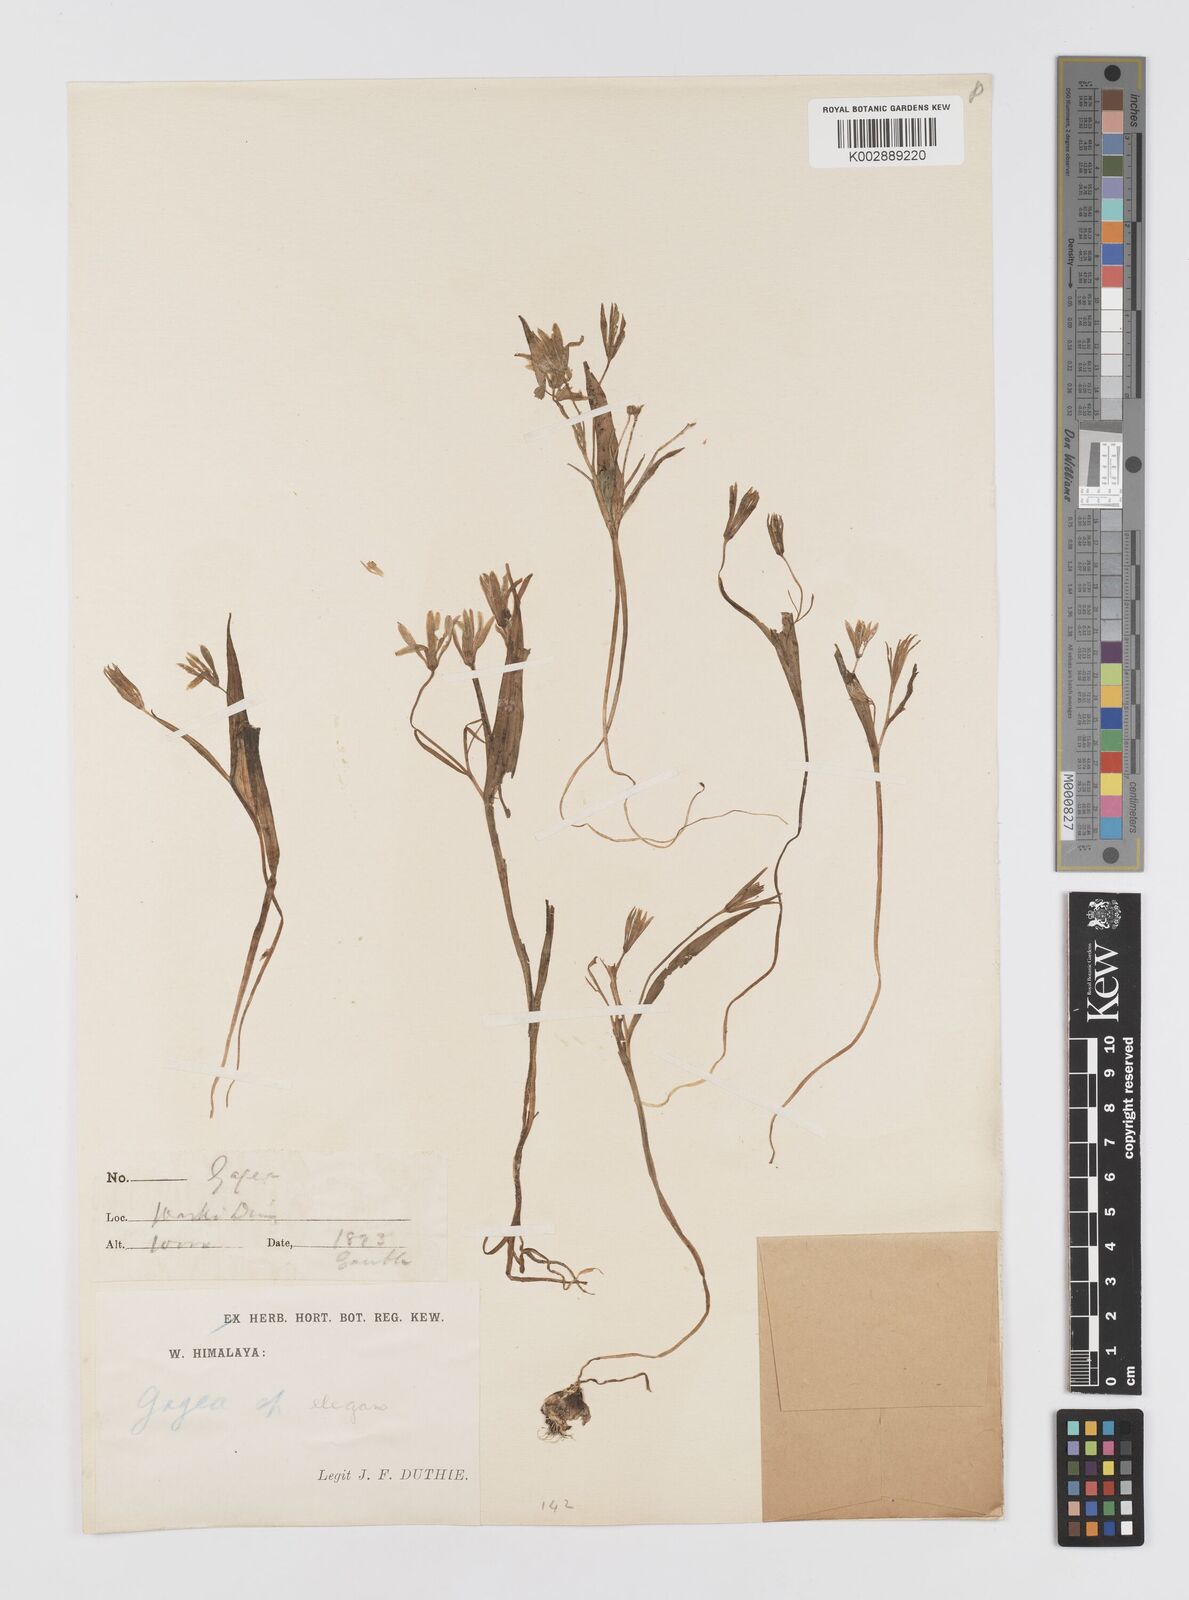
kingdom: Plantae
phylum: Tracheophyta
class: Liliopsida
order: Liliales
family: Liliaceae
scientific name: Liliaceae
